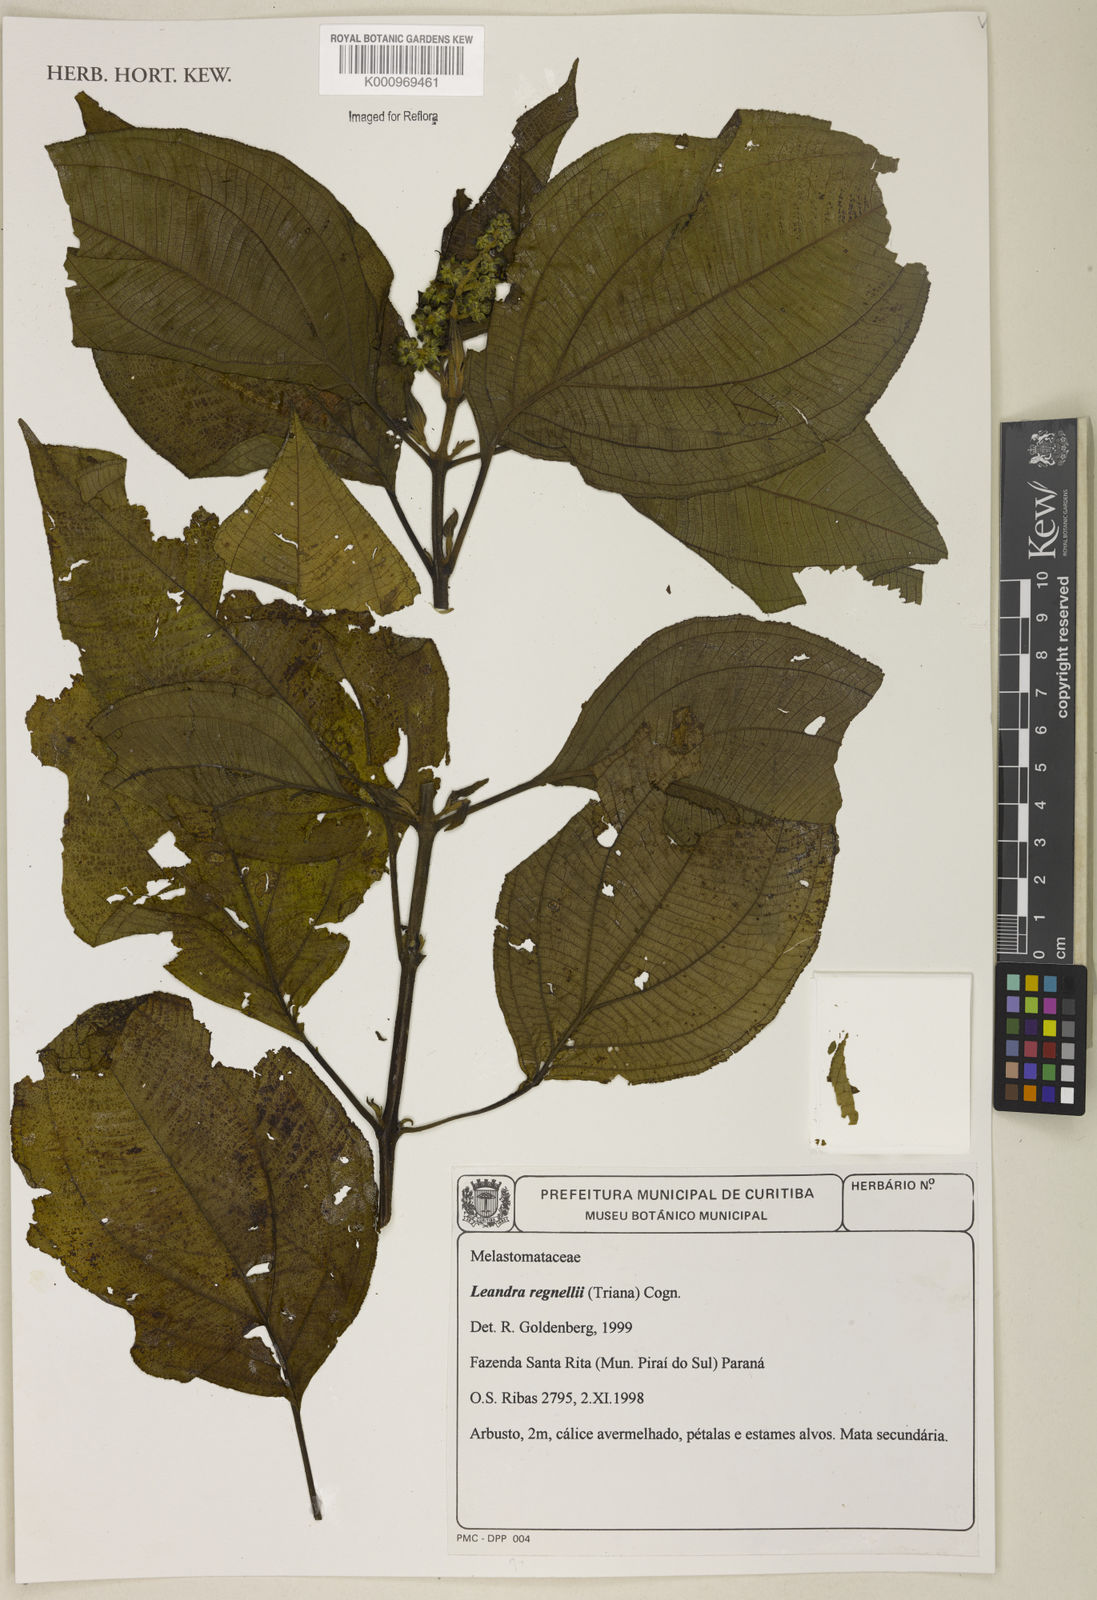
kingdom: Plantae
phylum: Tracheophyta
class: Magnoliopsida
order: Myrtales
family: Melastomataceae
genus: Miconia
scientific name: Miconia alterninervia
